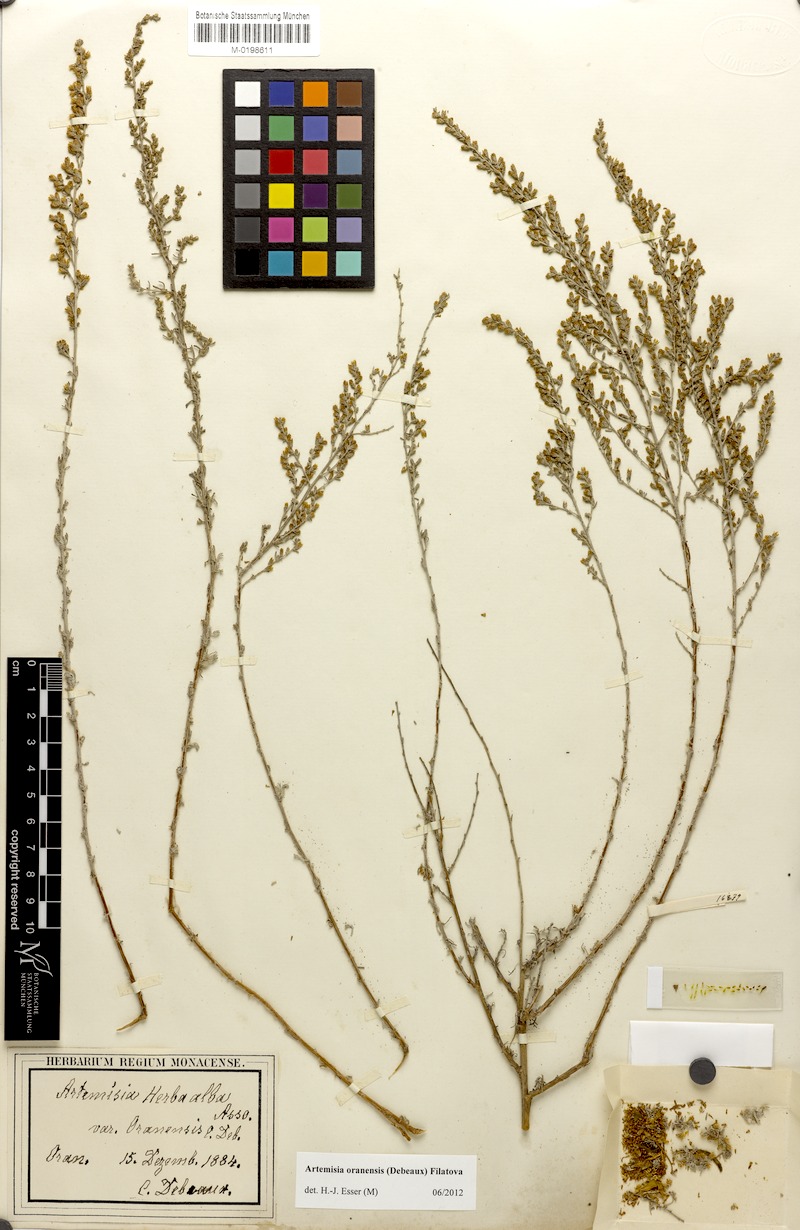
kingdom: Plantae
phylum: Tracheophyta
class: Magnoliopsida
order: Asterales
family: Asteraceae
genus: Artemisia
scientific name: Artemisia oranensis
